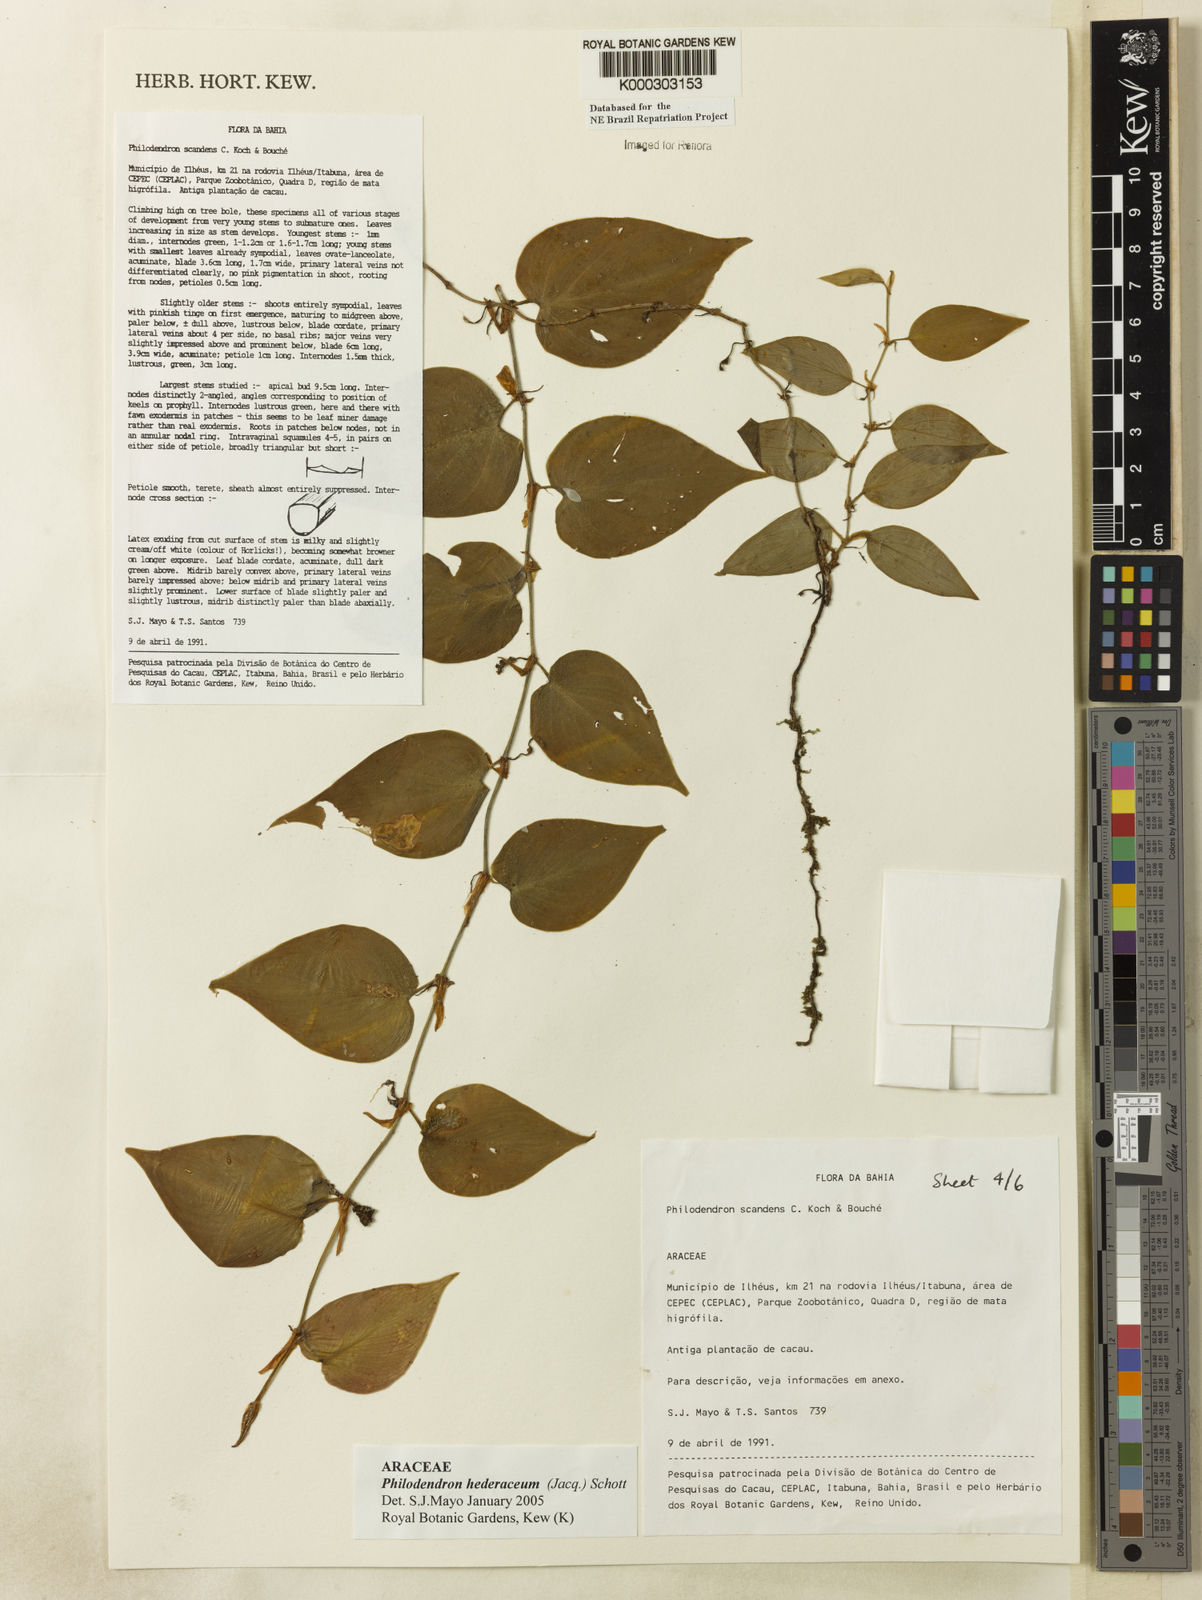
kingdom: Plantae
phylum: Tracheophyta
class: Liliopsida
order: Alismatales
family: Araceae
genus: Philodendron
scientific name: Philodendron hederaceum
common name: Vilevine
